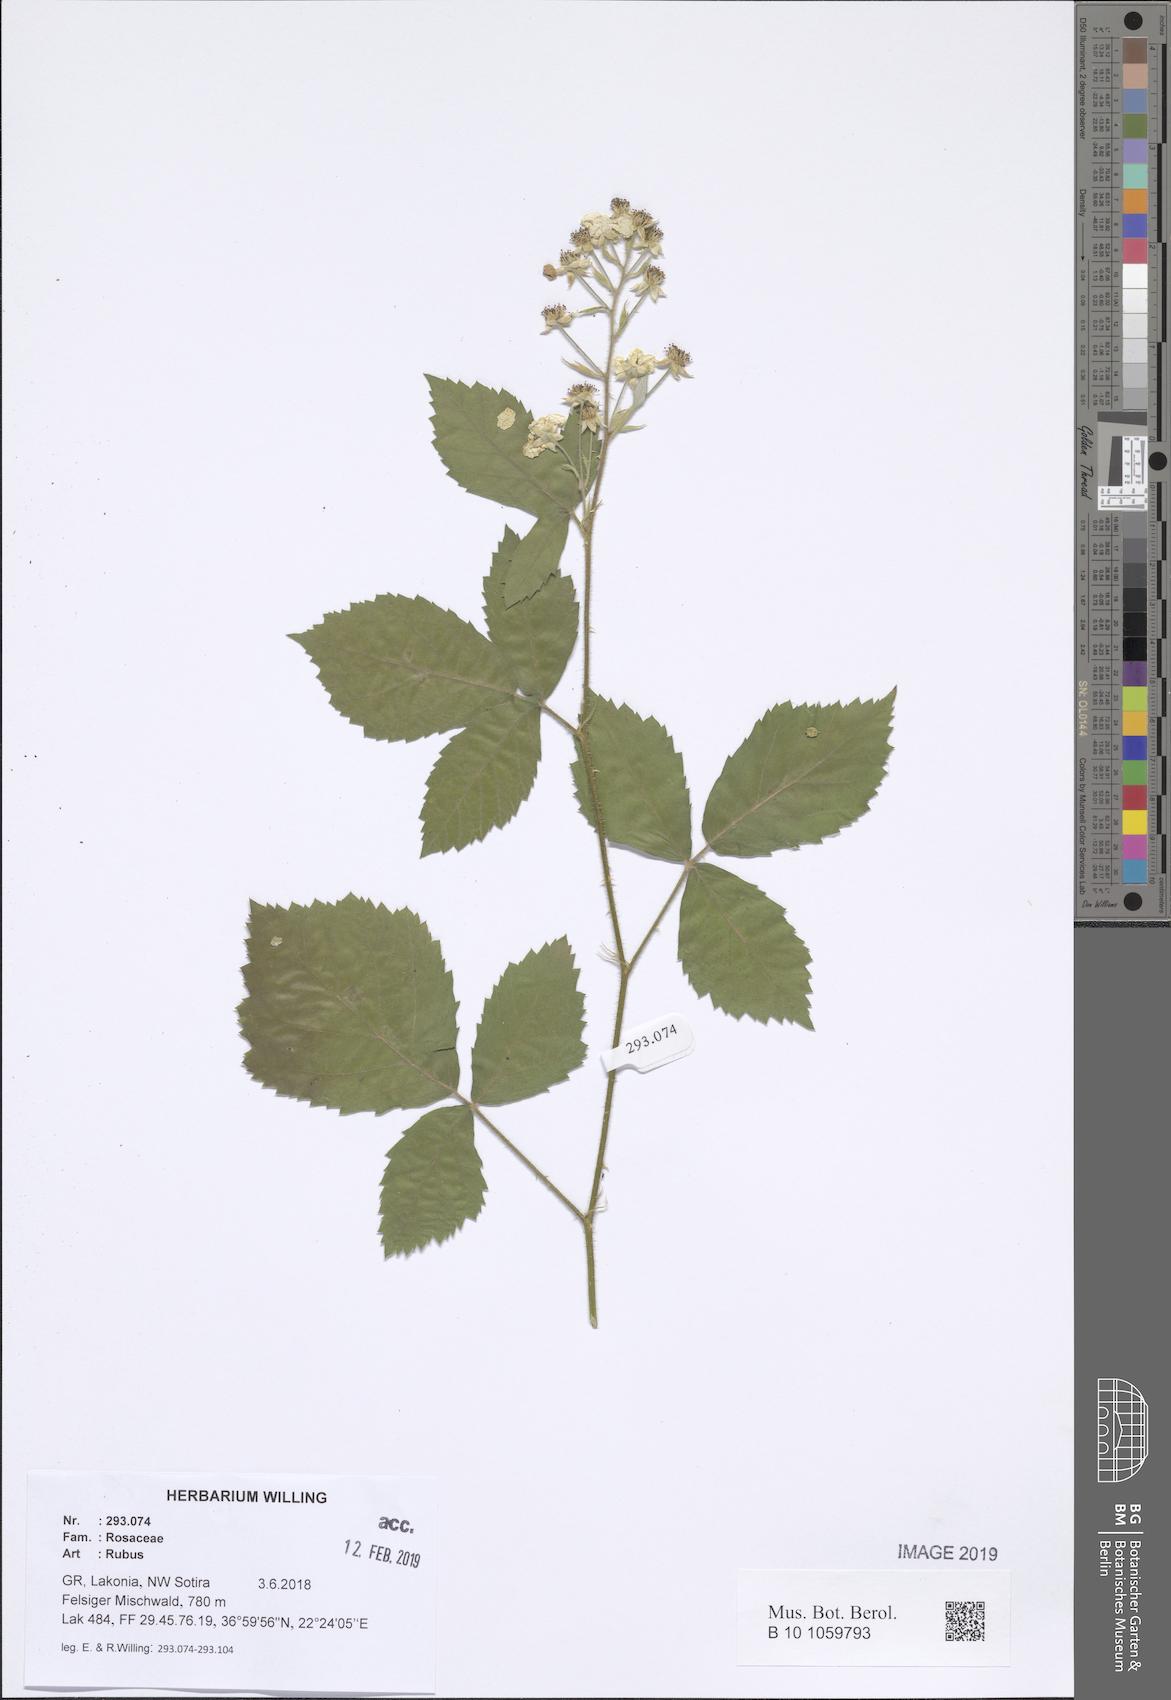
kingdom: Plantae
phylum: Tracheophyta
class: Magnoliopsida
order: Rosales
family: Rosaceae
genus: Rubus
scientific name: Rubus
